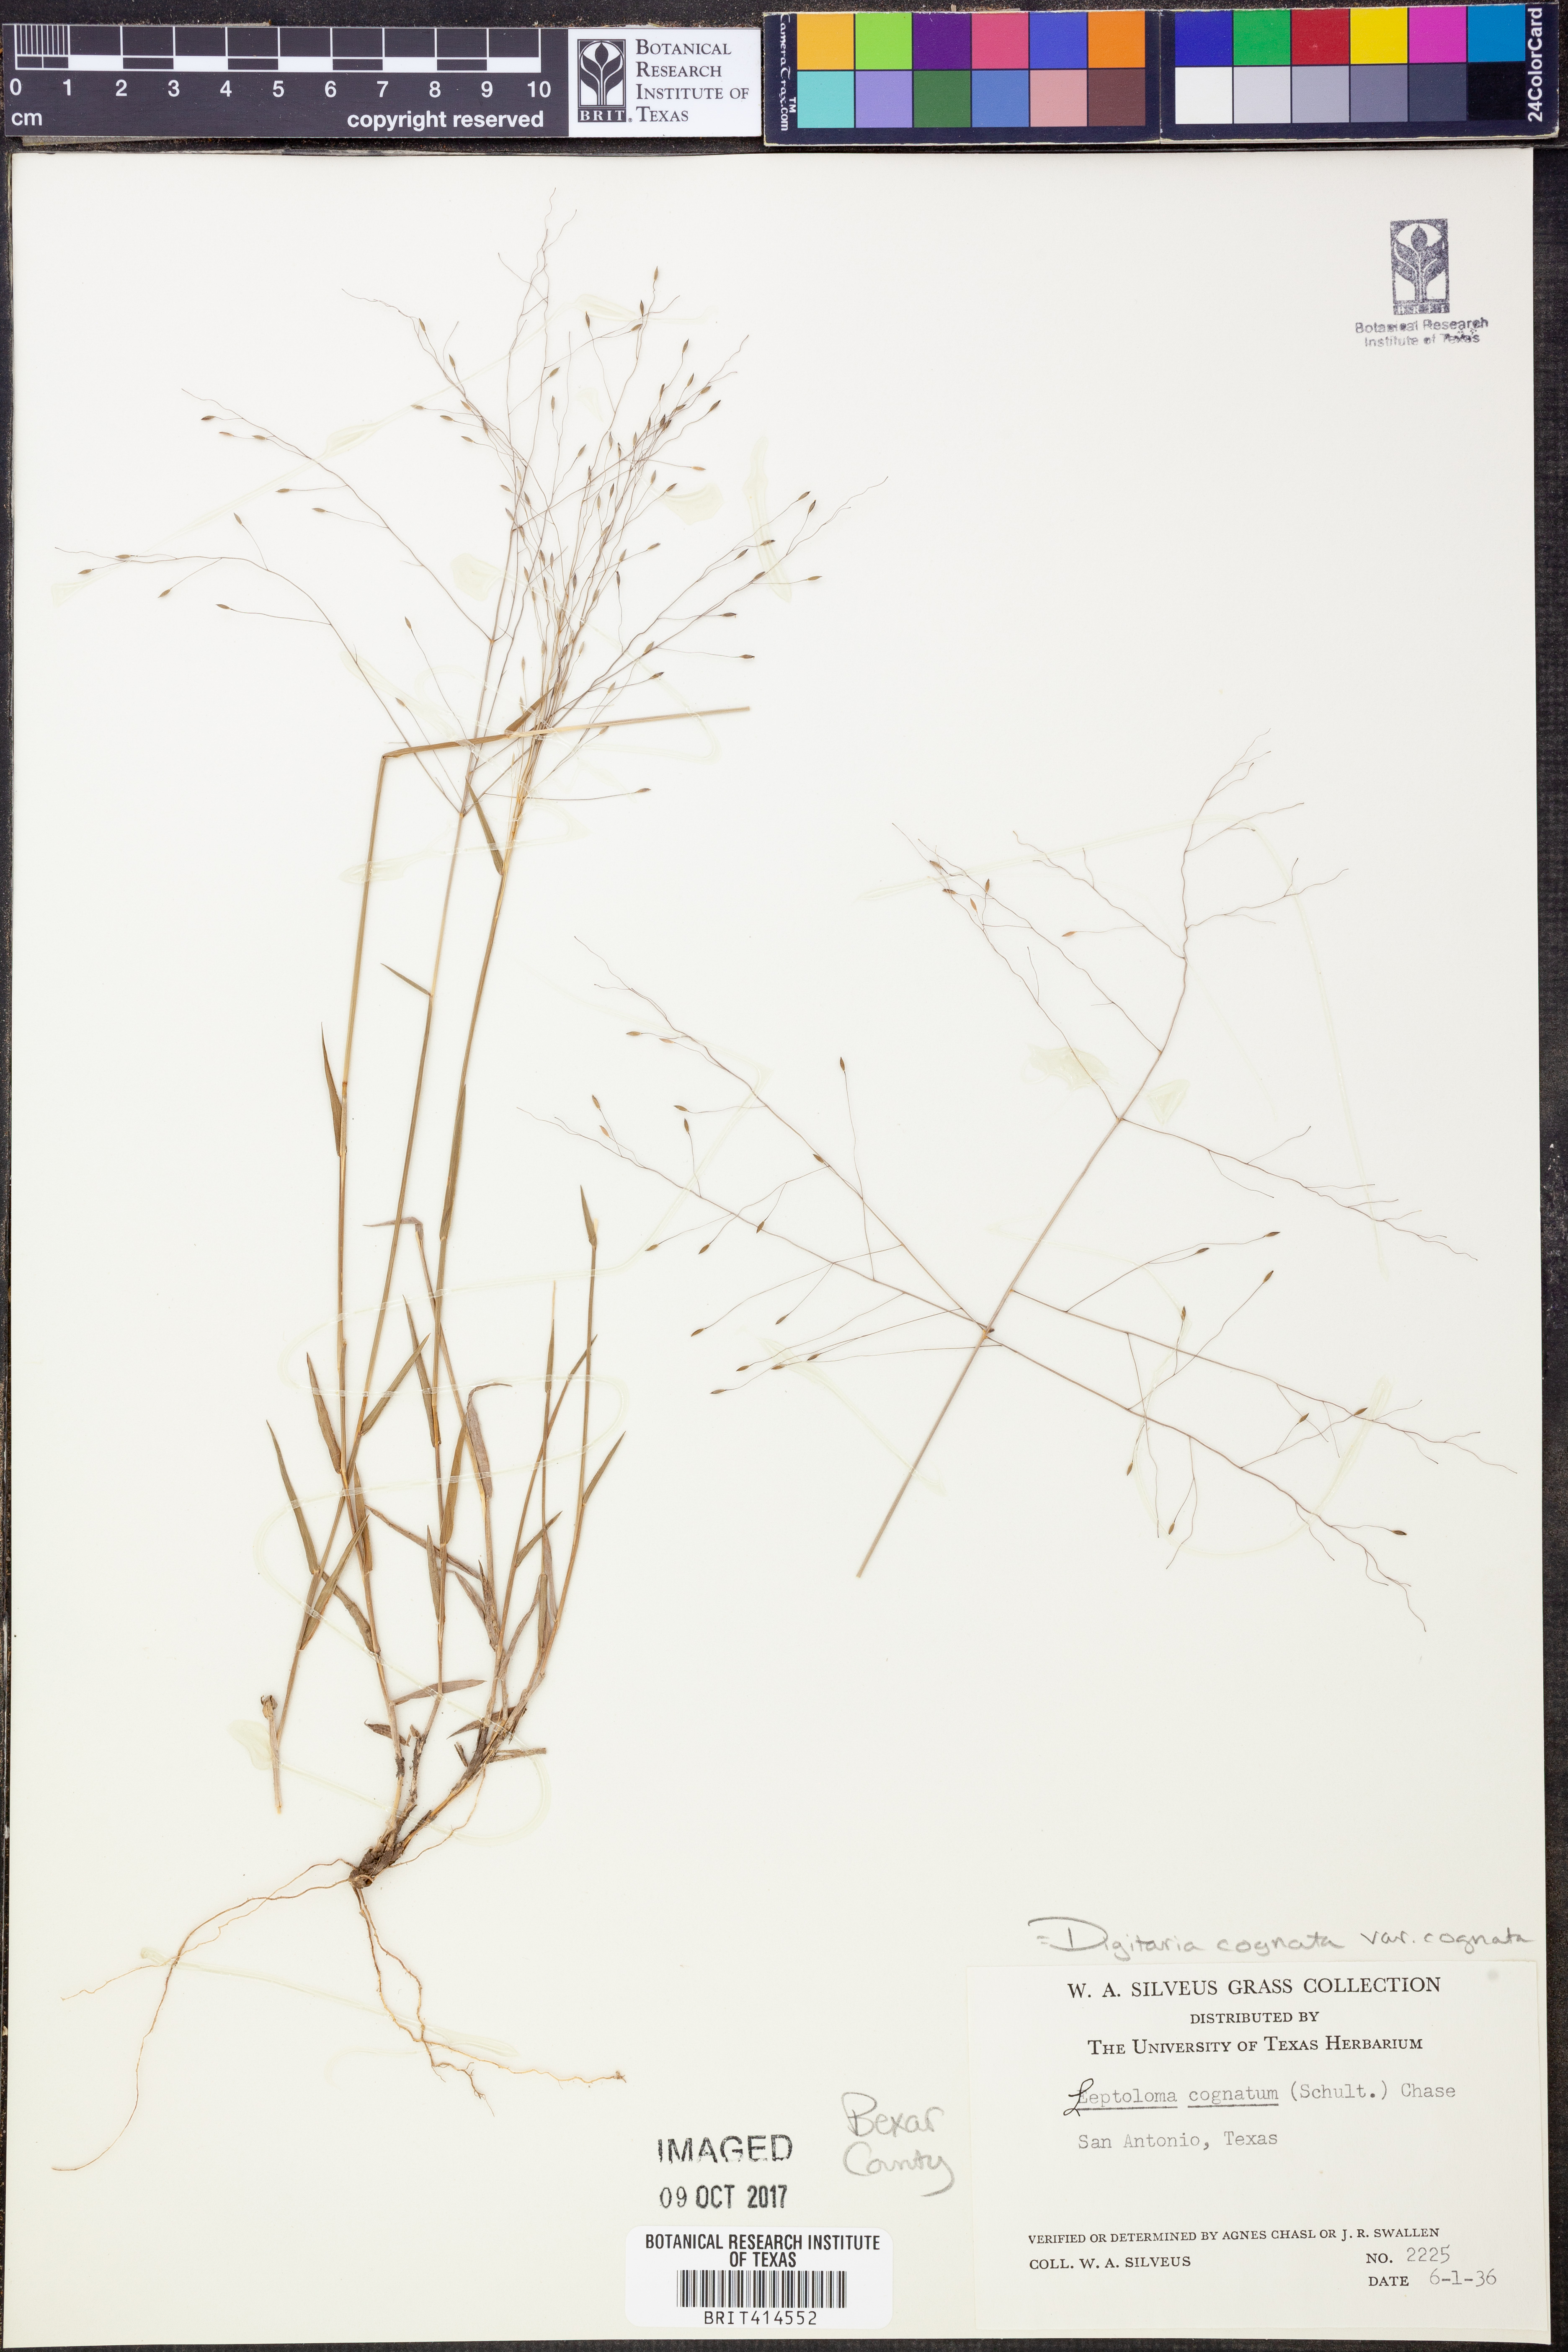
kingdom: Plantae
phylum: Tracheophyta
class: Liliopsida
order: Poales
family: Poaceae
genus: Digitaria
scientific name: Digitaria cognata
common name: Fall witchgrass
